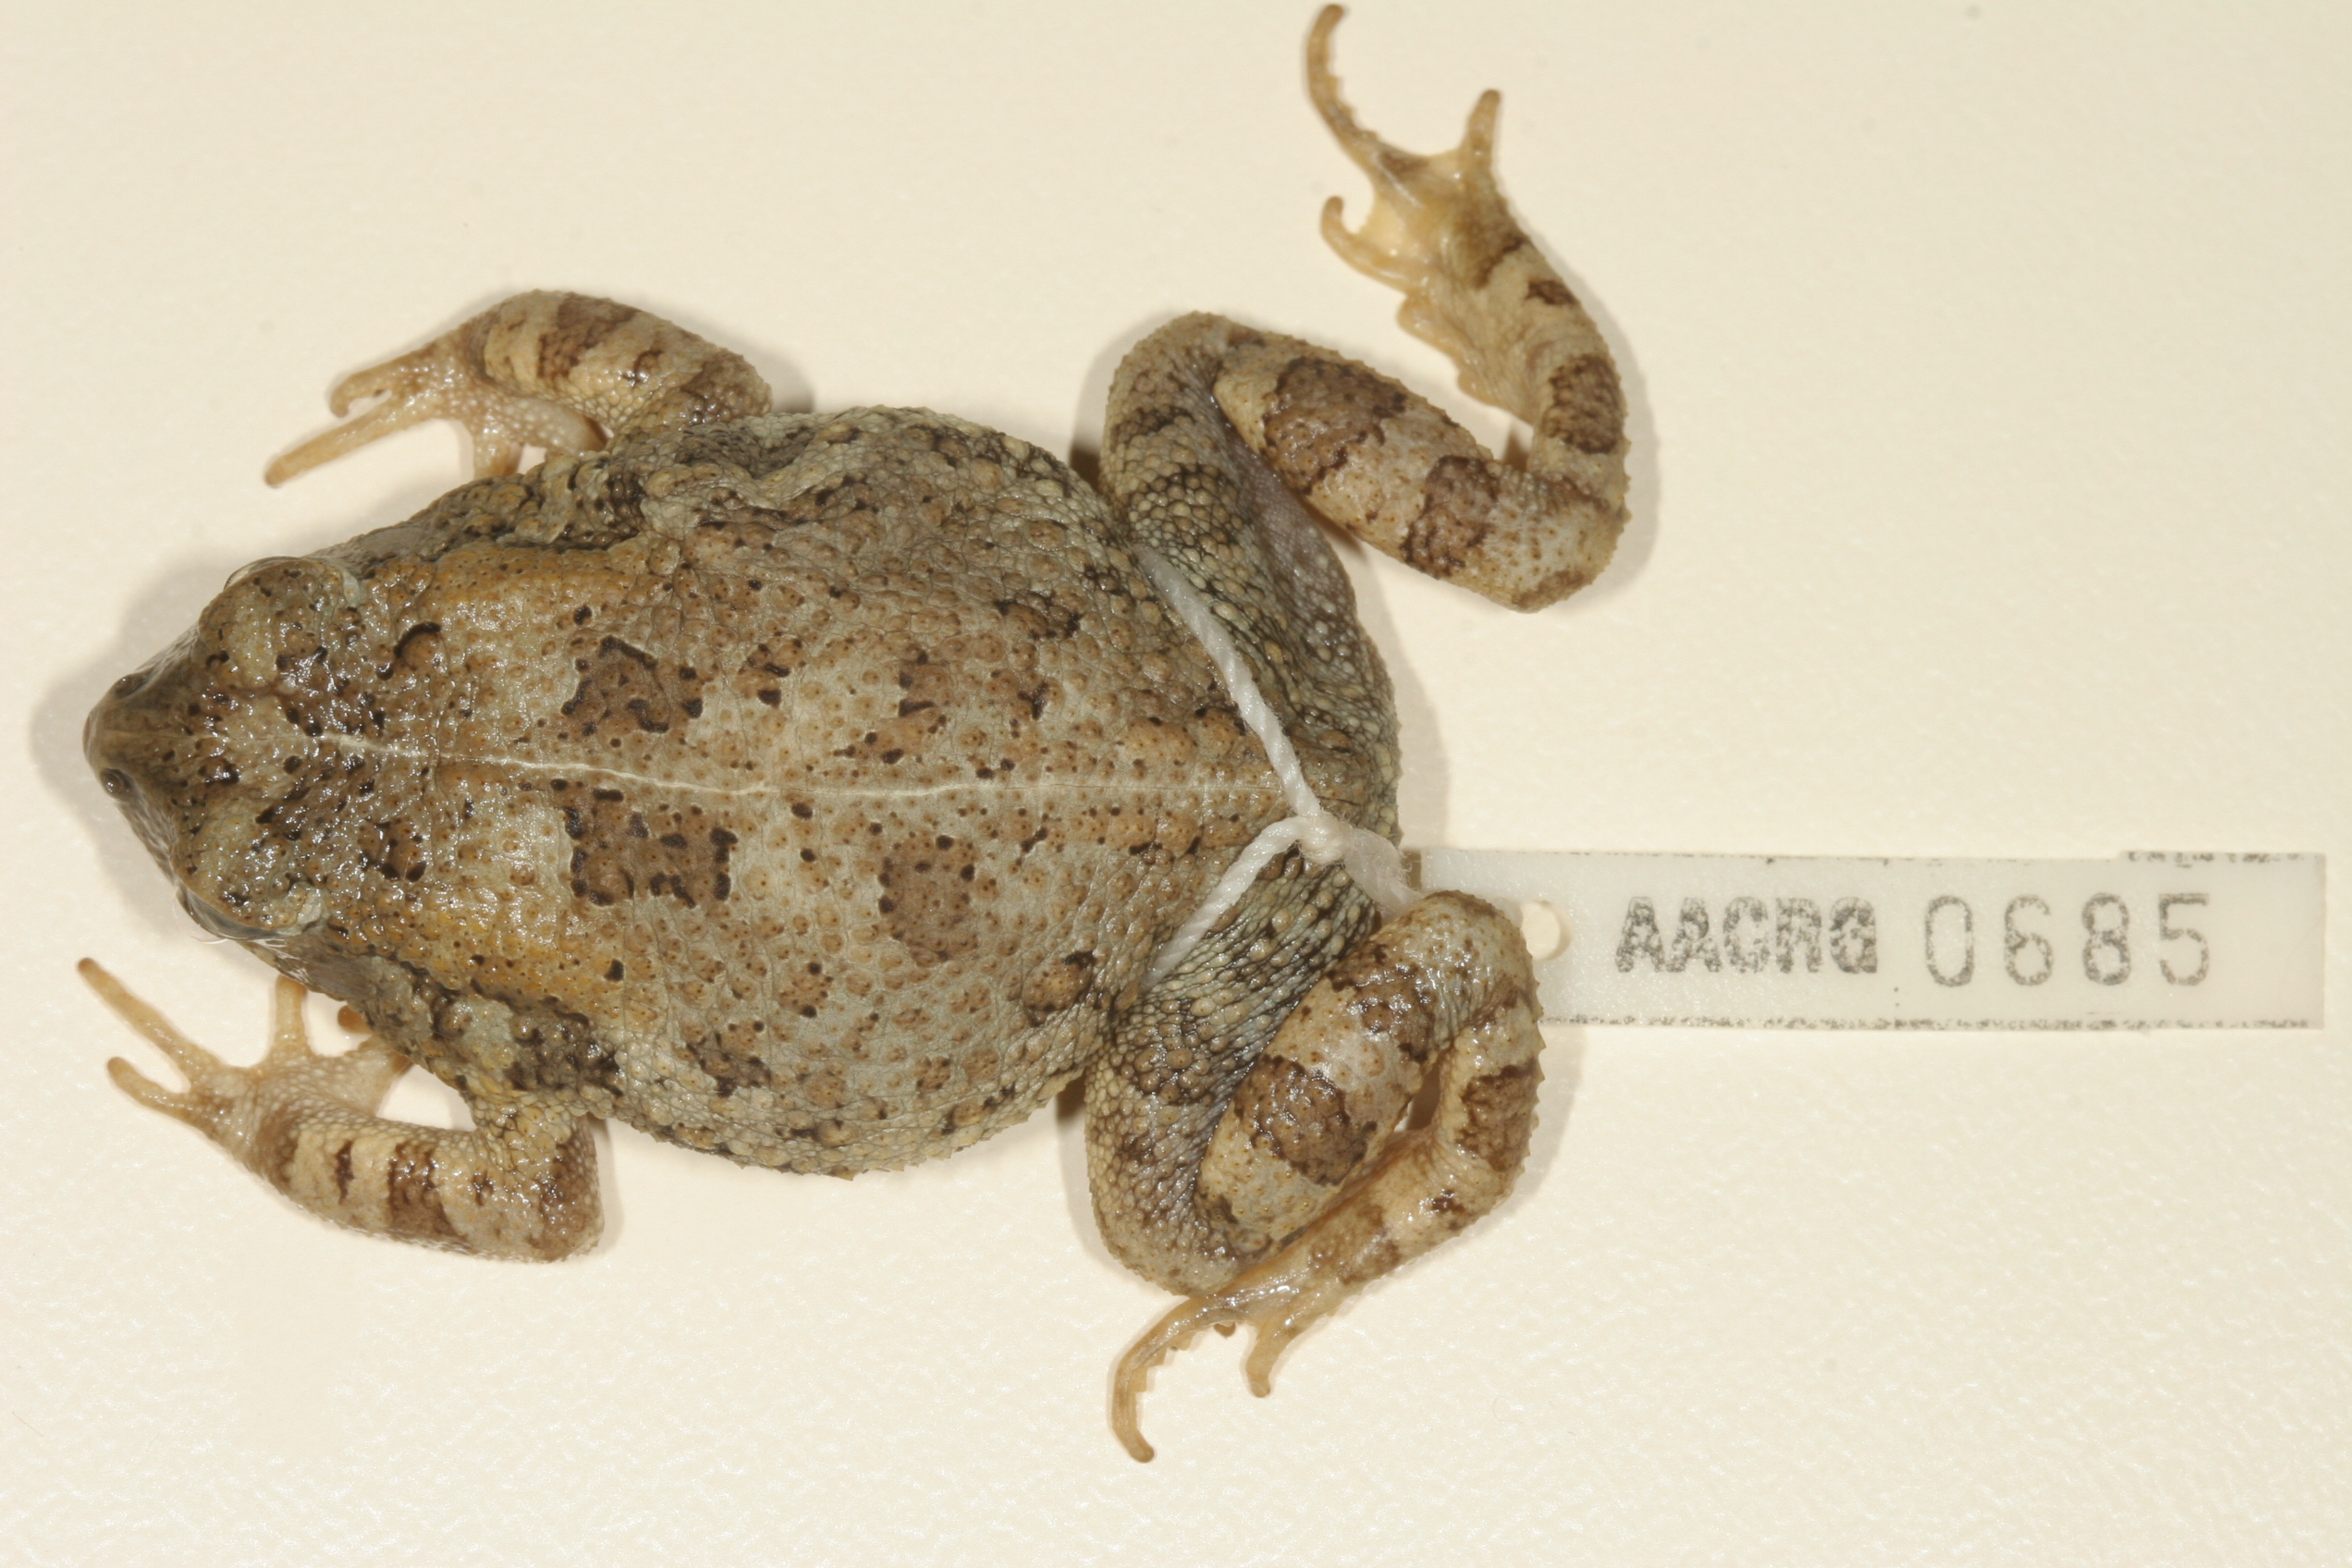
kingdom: Animalia
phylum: Chordata
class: Amphibia
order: Anura
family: Bufonidae
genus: Sclerophrys
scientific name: Sclerophrys maculata
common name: Hallowell's toad
